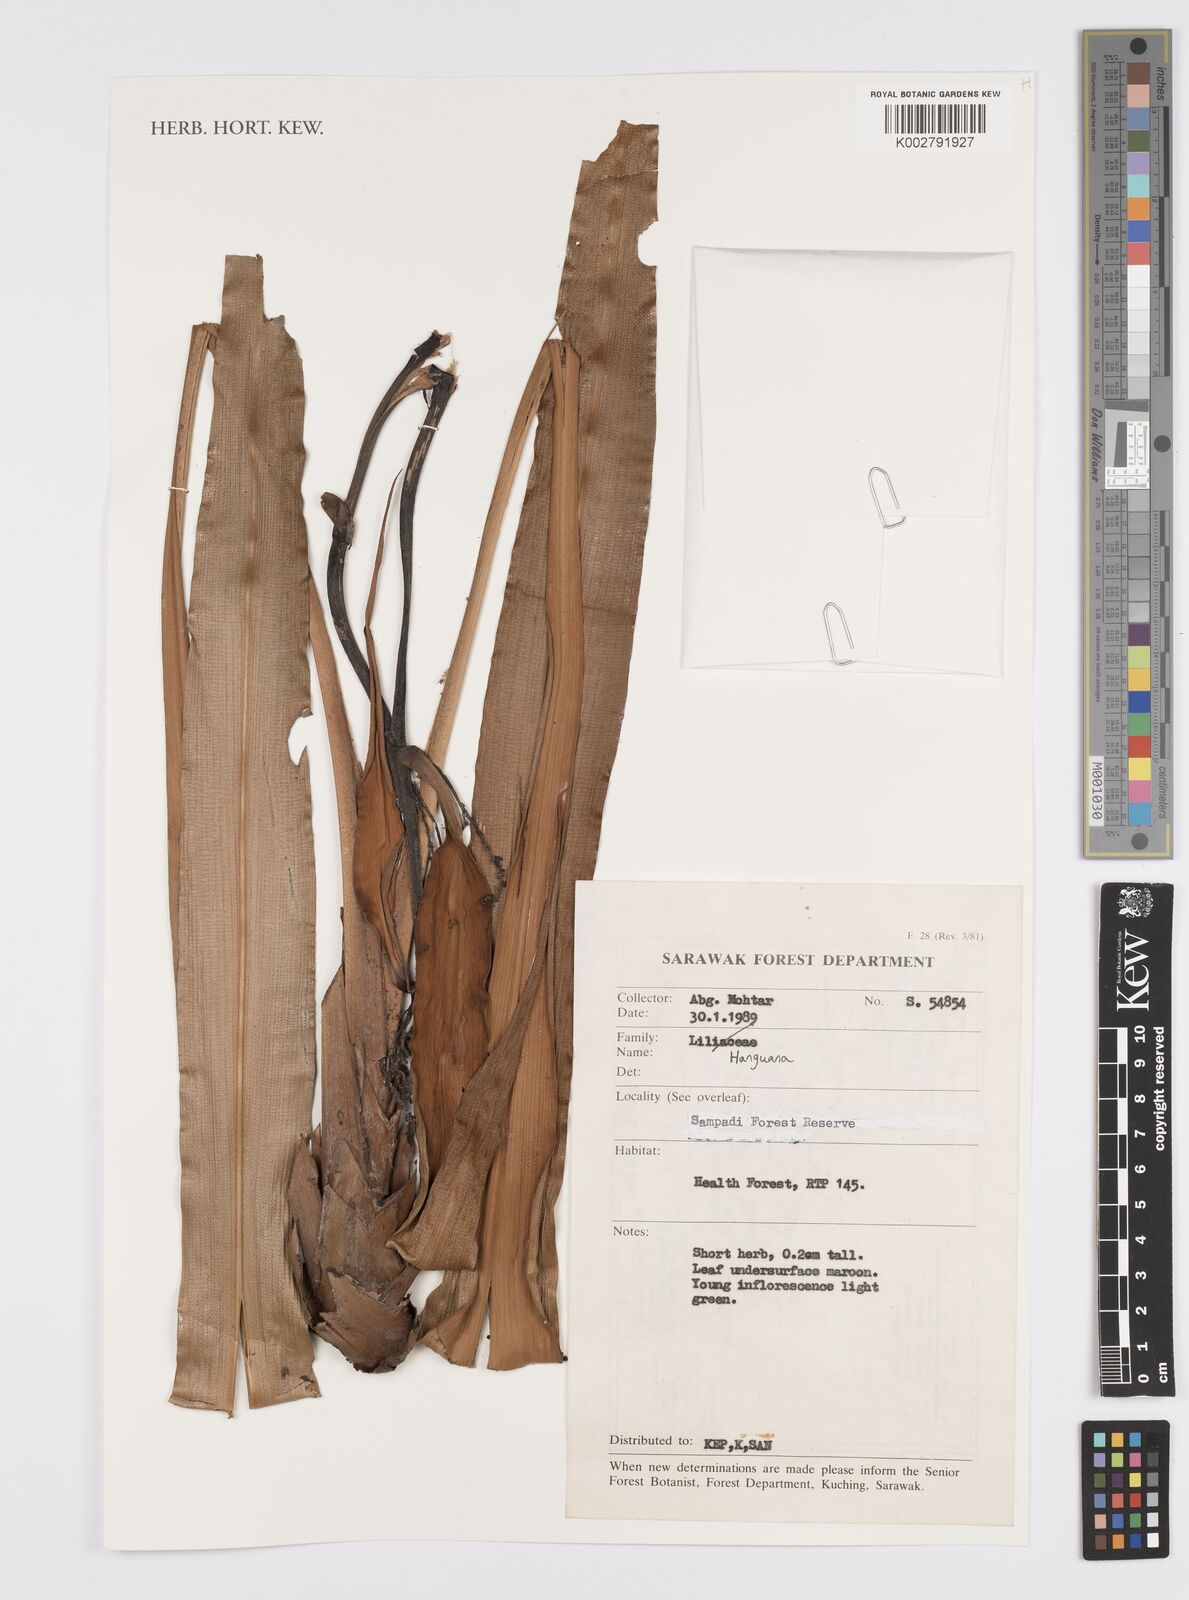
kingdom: Plantae
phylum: Tracheophyta
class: Liliopsida
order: Commelinales
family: Hanguanaceae
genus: Hanguana
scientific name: Hanguana
